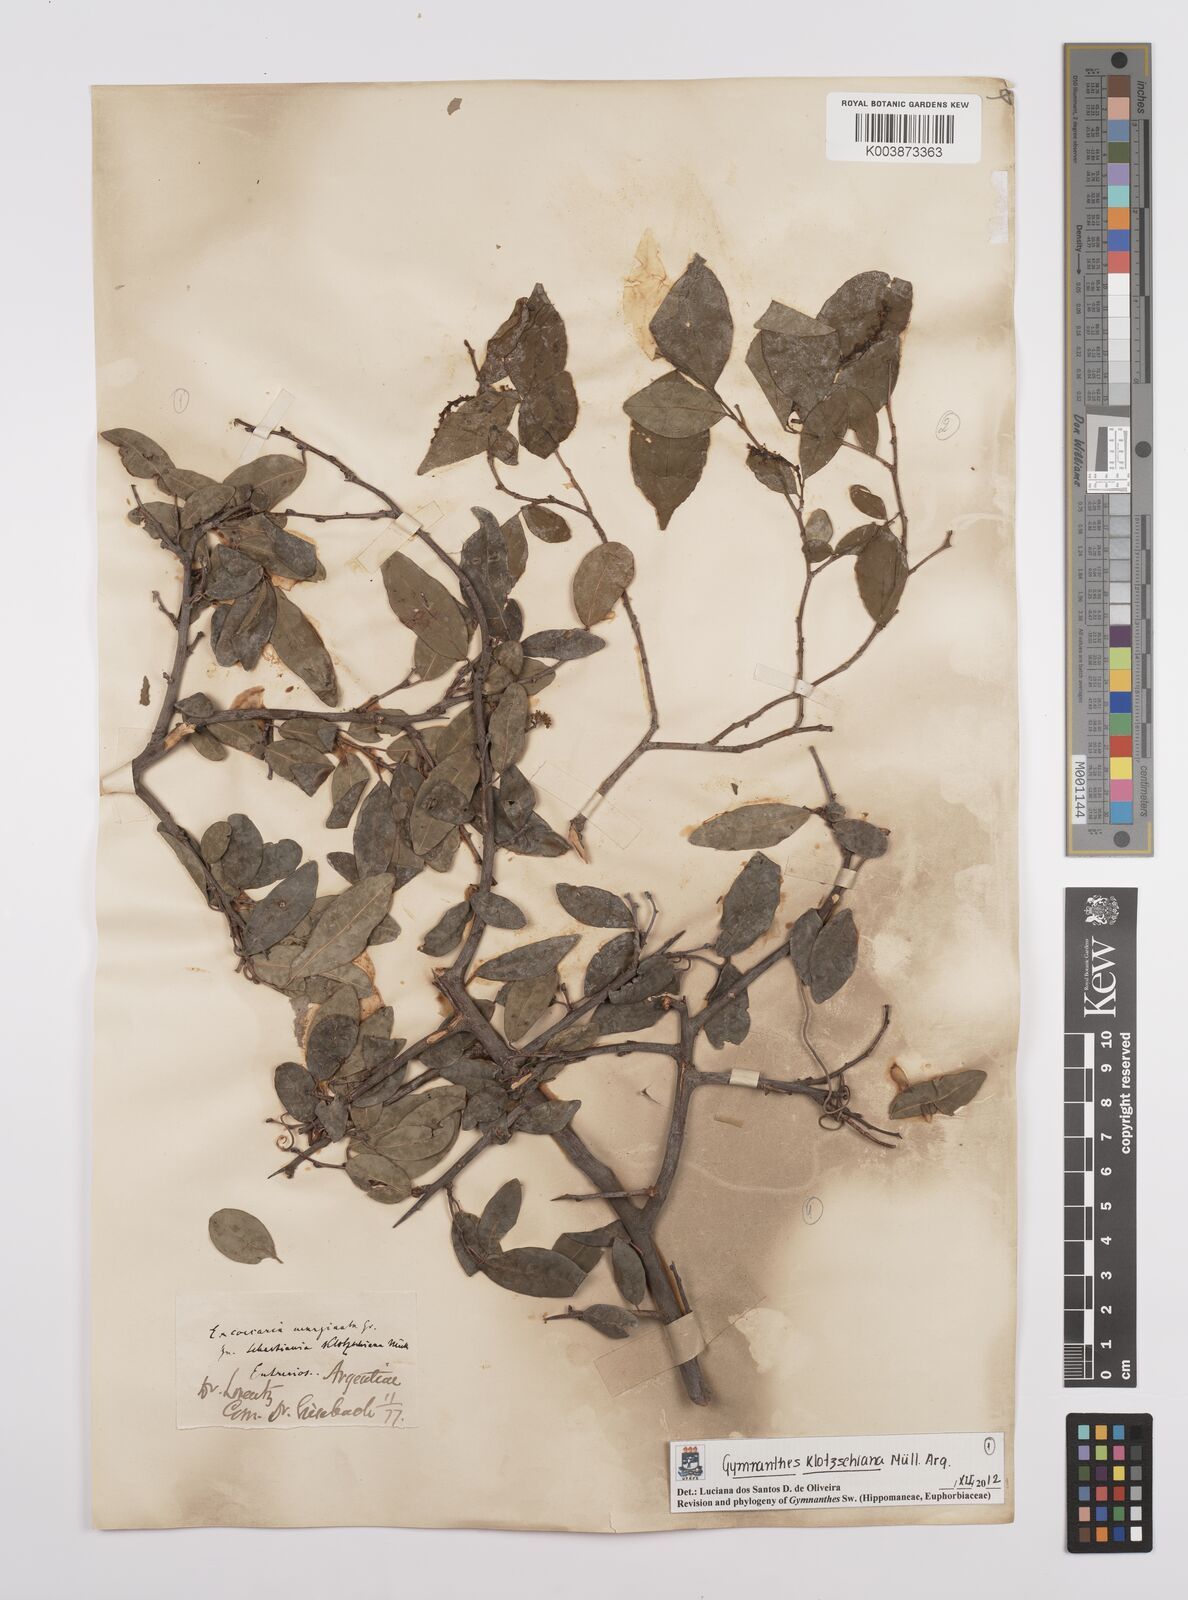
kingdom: Plantae
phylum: Tracheophyta
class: Magnoliopsida
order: Malpighiales
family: Euphorbiaceae
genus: Sebastiania
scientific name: Sebastiania klotzschiana
